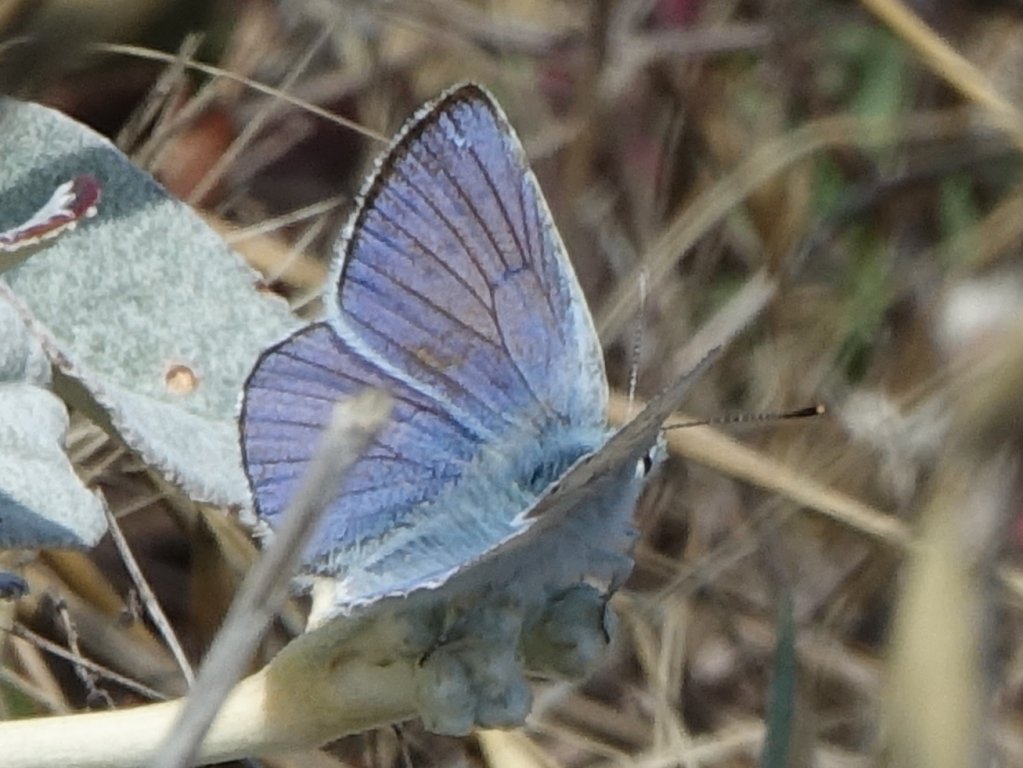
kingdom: Animalia
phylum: Arthropoda
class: Insecta
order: Lepidoptera
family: Lycaenidae
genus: Lycaena
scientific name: Lycaena heteronea
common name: Blue Copper
